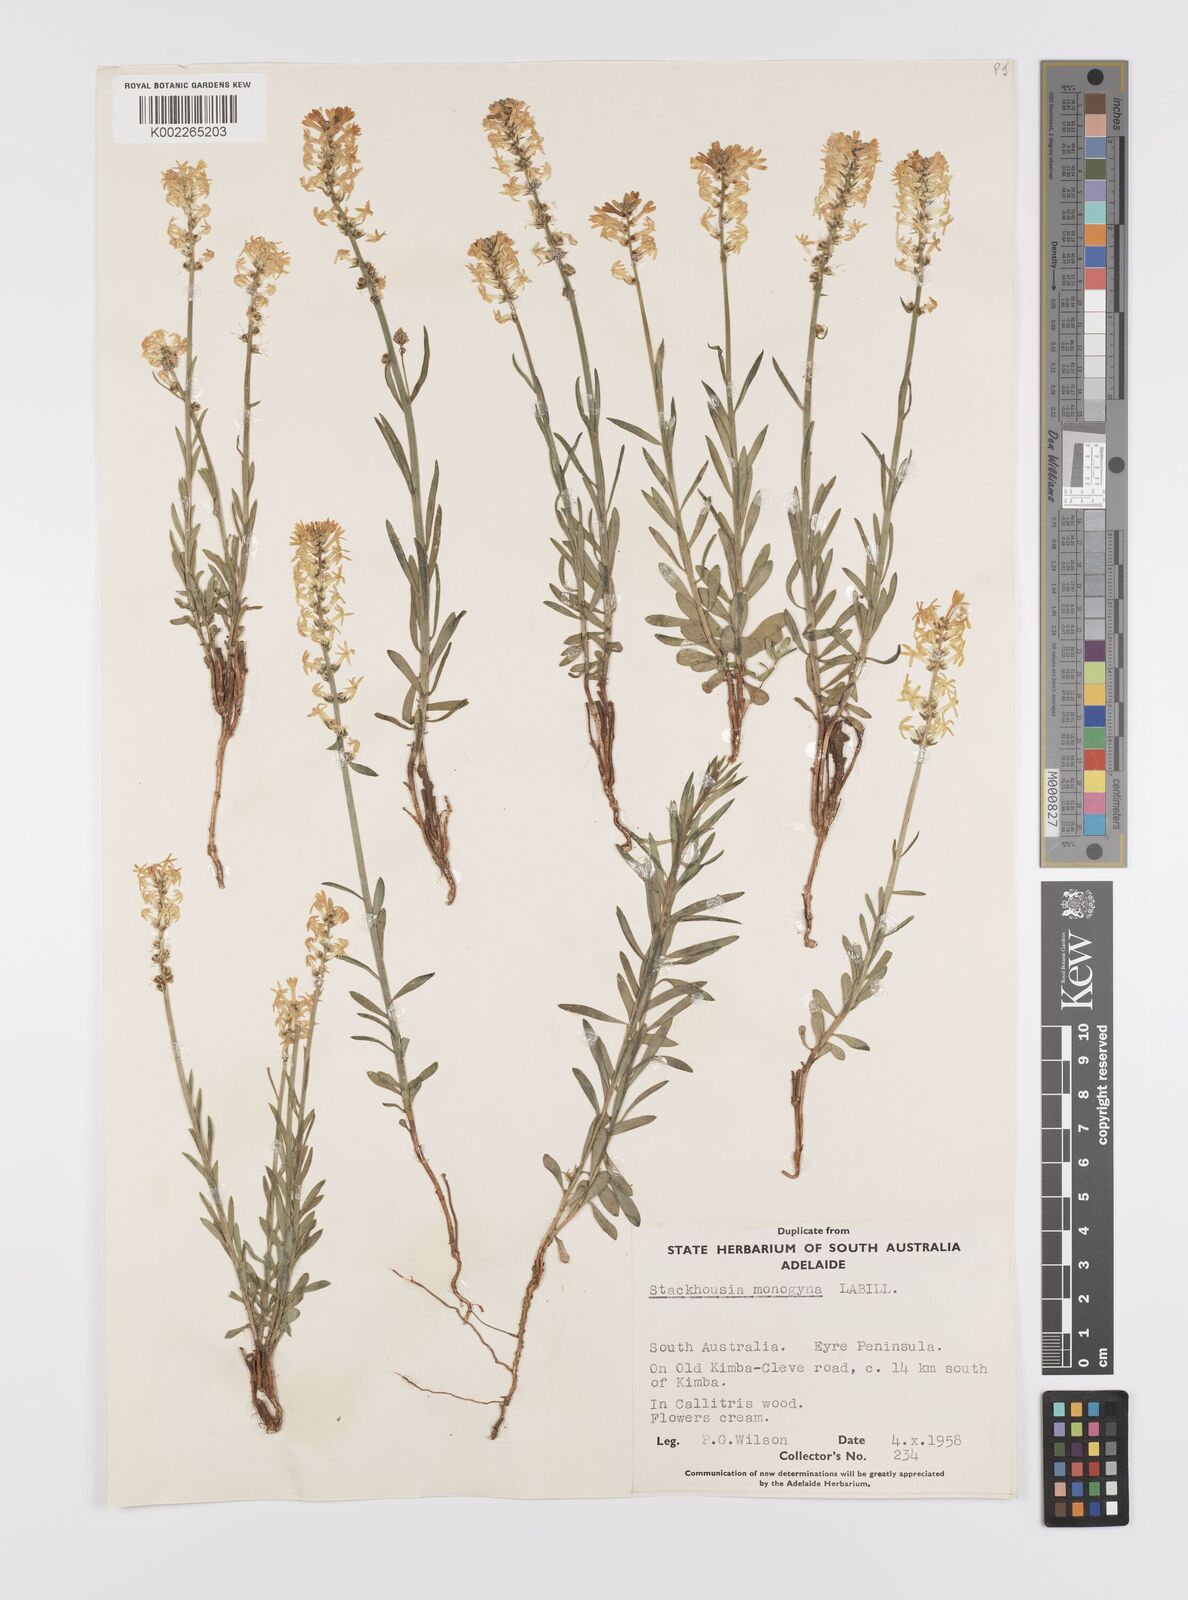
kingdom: Plantae
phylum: Tracheophyta
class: Magnoliopsida
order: Celastrales
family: Celastraceae
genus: Stackhousia
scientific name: Stackhousia monogyna
